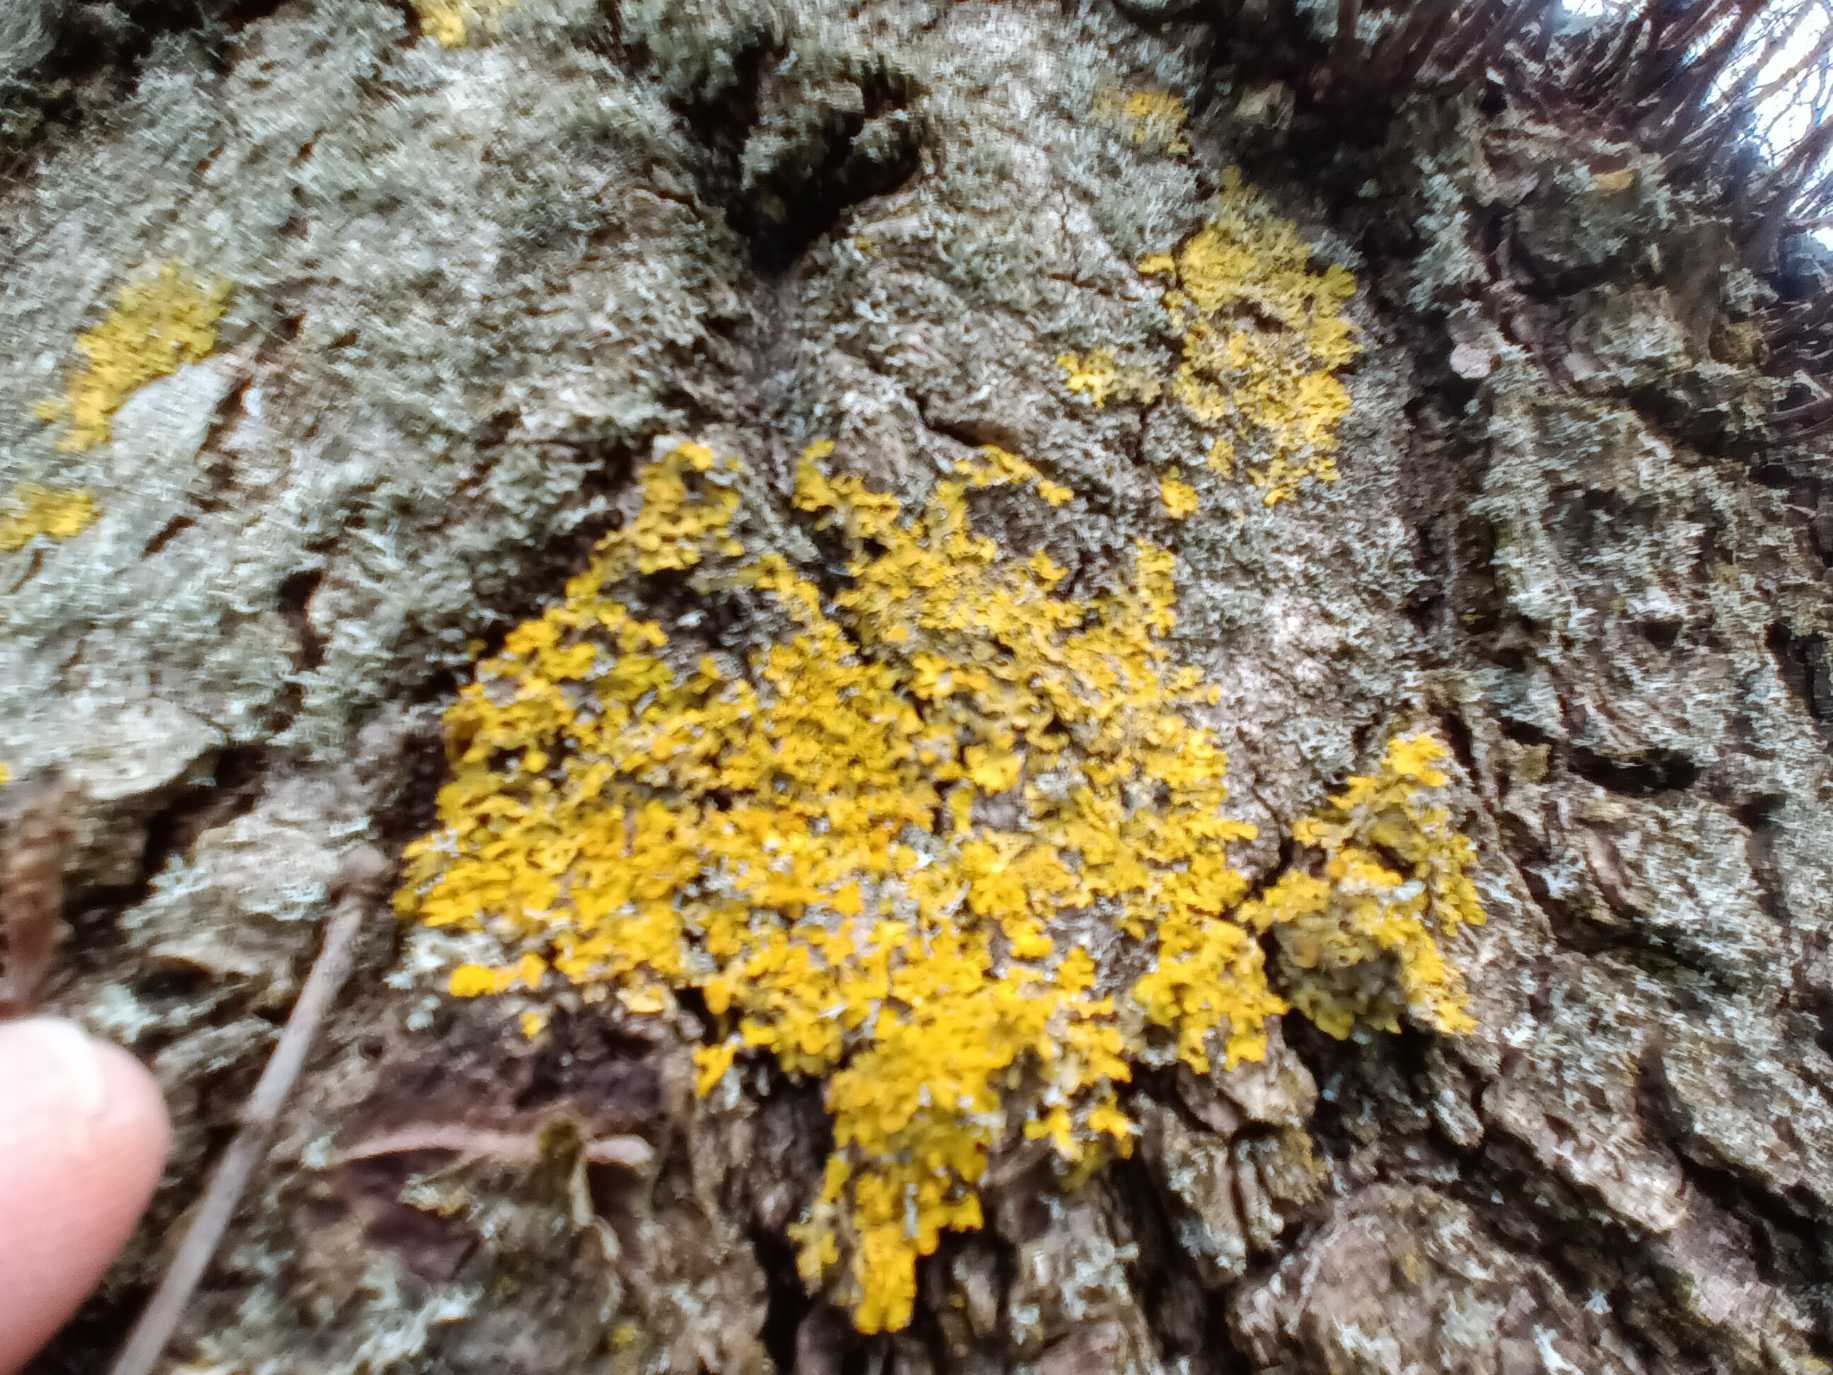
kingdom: Fungi
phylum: Ascomycota
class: Lecanoromycetes
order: Teloschistales
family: Teloschistaceae
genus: Xanthoria
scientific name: Xanthoria parietina
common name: Almindelig væggelav
